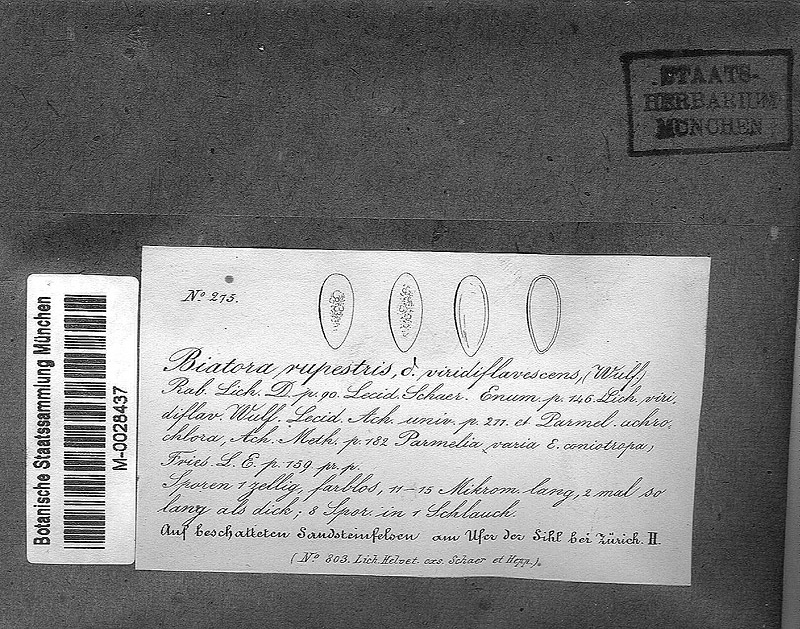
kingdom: Fungi
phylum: Ascomycota
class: Lecanoromycetes
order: Lecanorales
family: Psoraceae
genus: Protoblastenia
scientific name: Protoblastenia rupestris
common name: Chewing gum lichen
